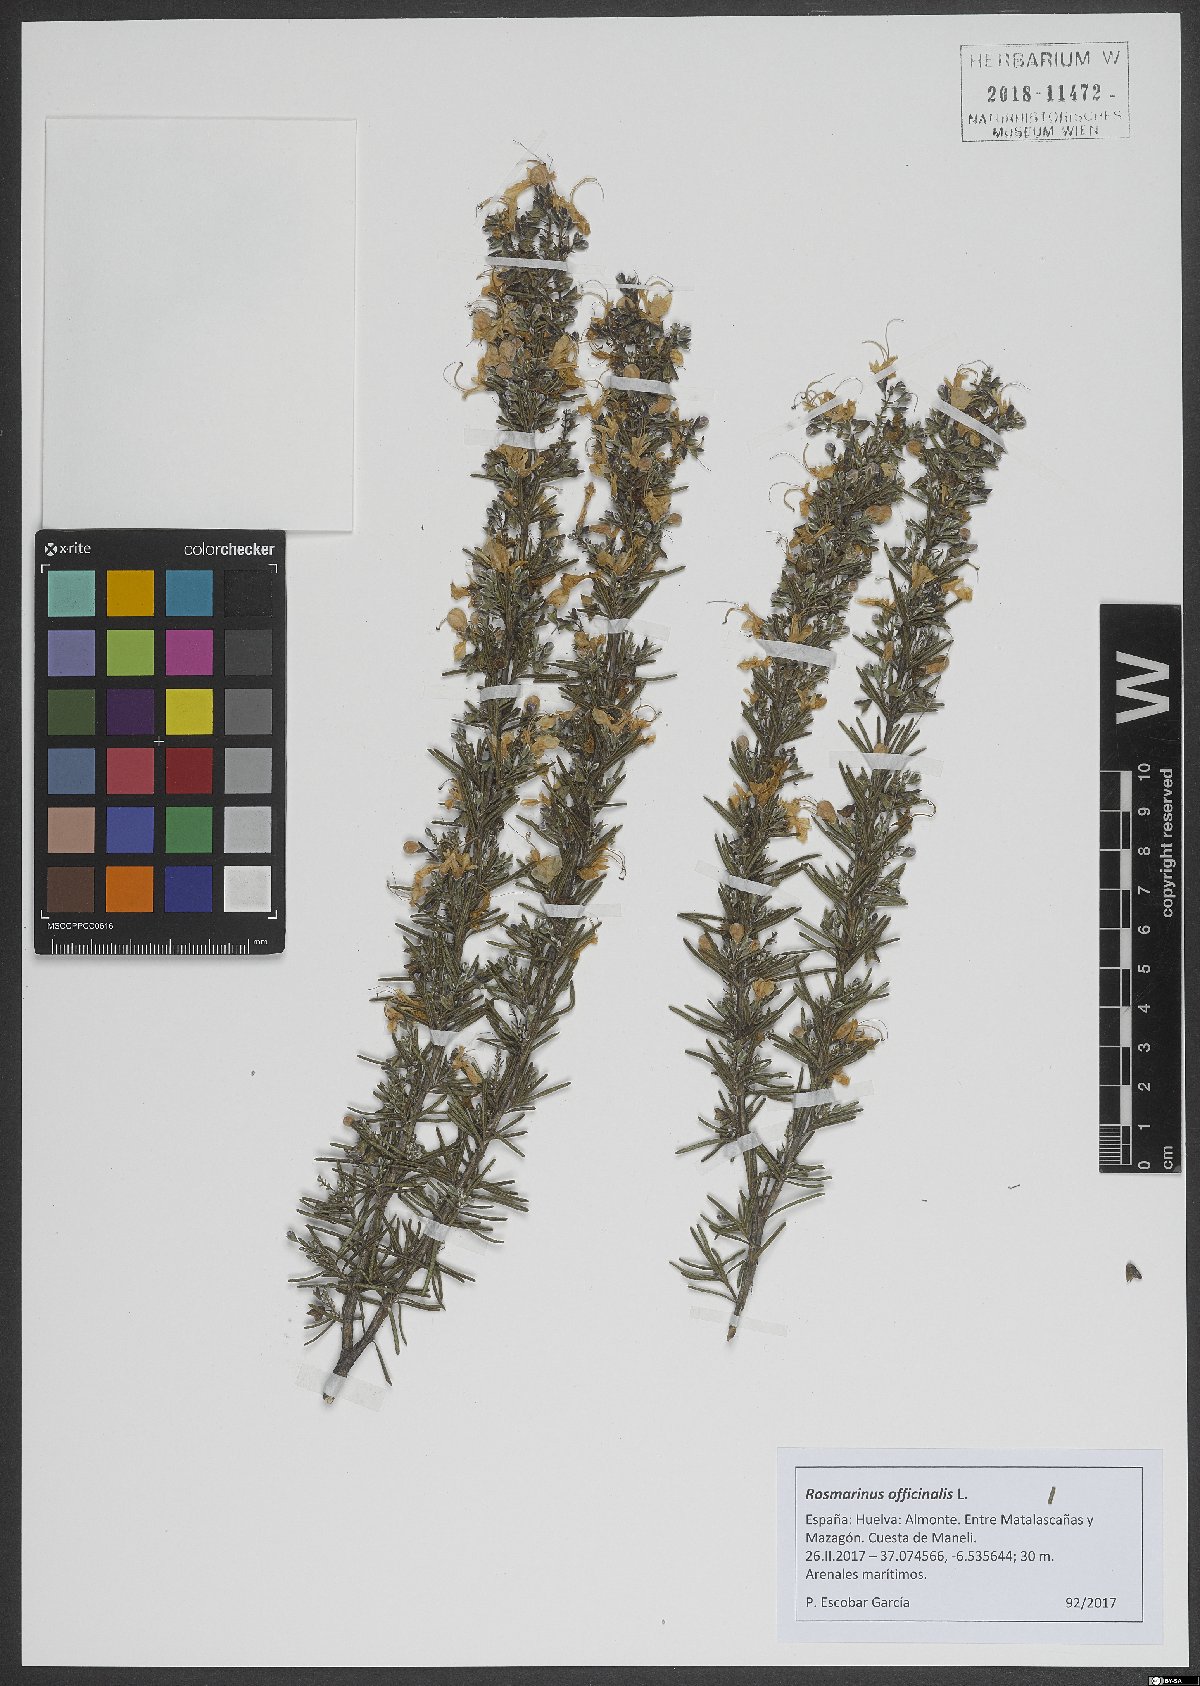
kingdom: Plantae
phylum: Tracheophyta
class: Magnoliopsida
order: Lamiales
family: Lamiaceae
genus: Salvia
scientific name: Salvia rosmarinus
